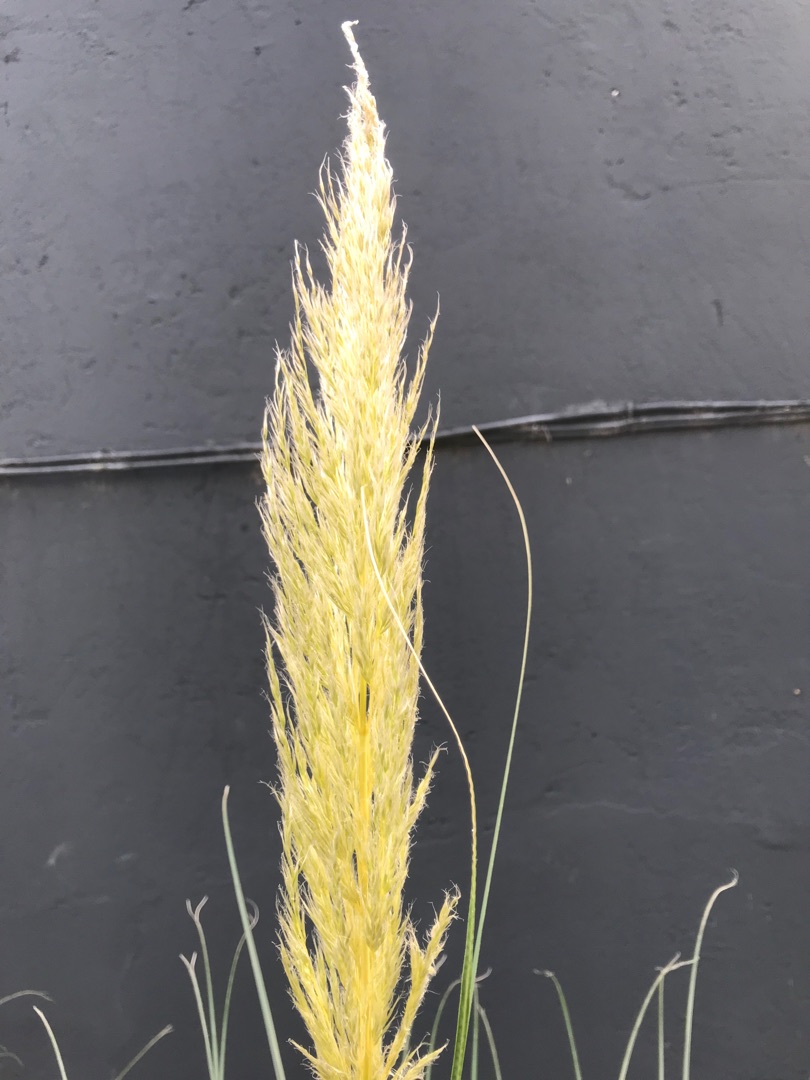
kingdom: Plantae
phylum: Tracheophyta
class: Liliopsida
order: Poales
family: Poaceae
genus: Cortaderia
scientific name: Cortaderia
